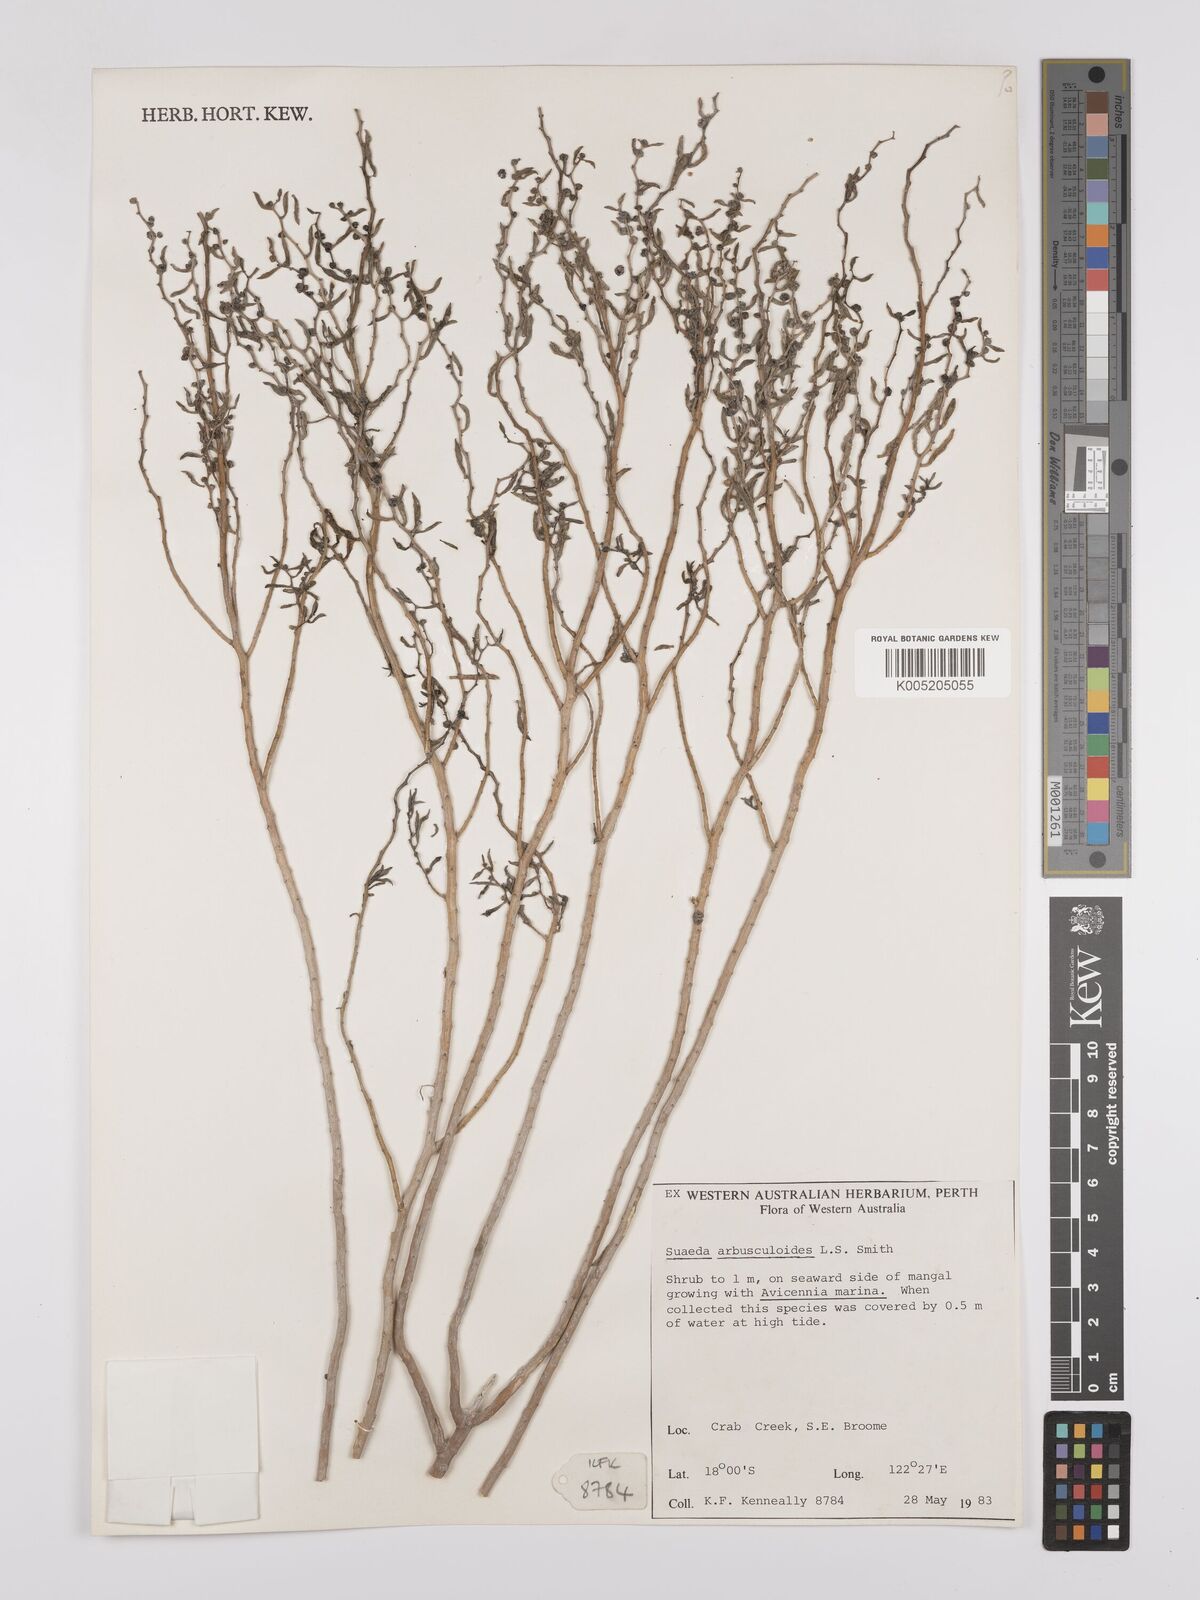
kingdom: Plantae
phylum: Tracheophyta
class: Magnoliopsida
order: Caryophyllales
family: Amaranthaceae
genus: Suaeda
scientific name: Suaeda arbusculoides
